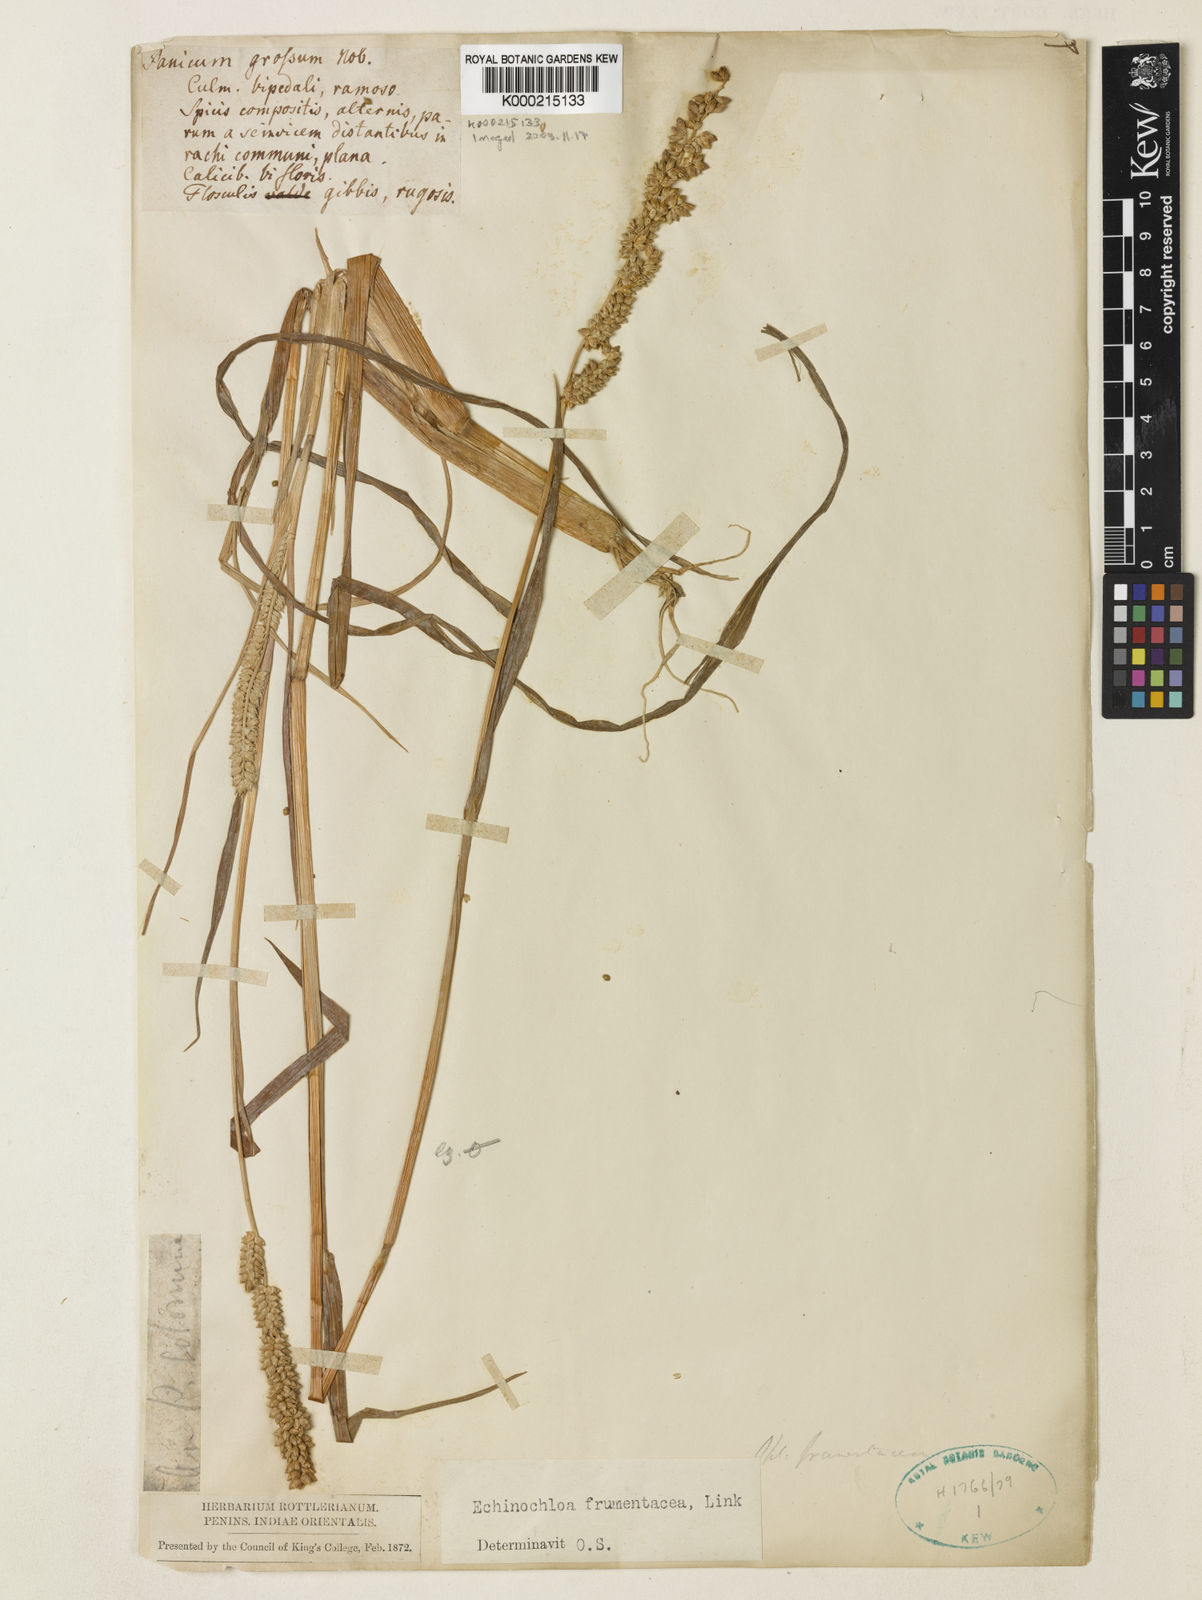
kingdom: Plantae
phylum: Tracheophyta
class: Liliopsida
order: Poales
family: Poaceae
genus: Echinochloa
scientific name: Echinochloa frumentacea
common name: Billion-dollar grass
